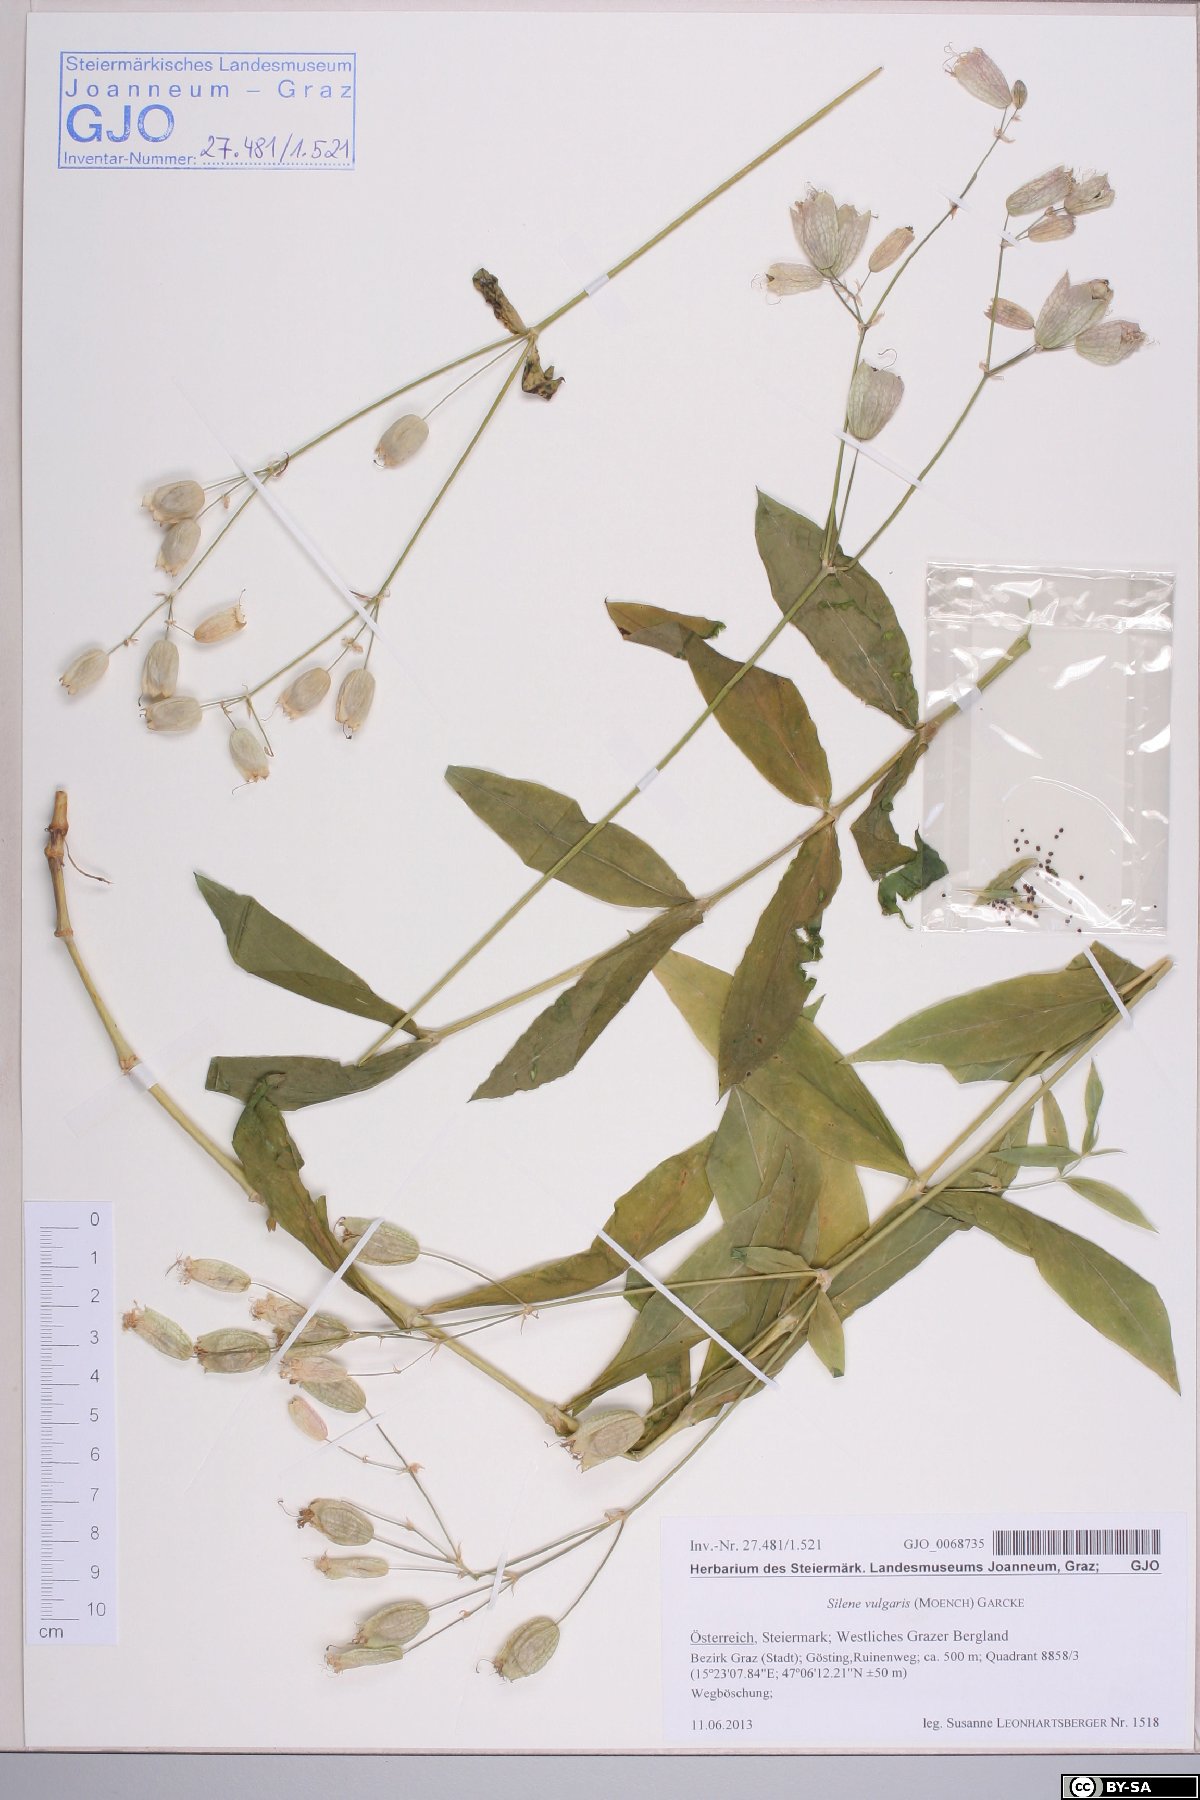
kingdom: Plantae
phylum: Tracheophyta
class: Magnoliopsida
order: Caryophyllales
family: Caryophyllaceae
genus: Silene
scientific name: Silene vulgaris
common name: Bladder campion
